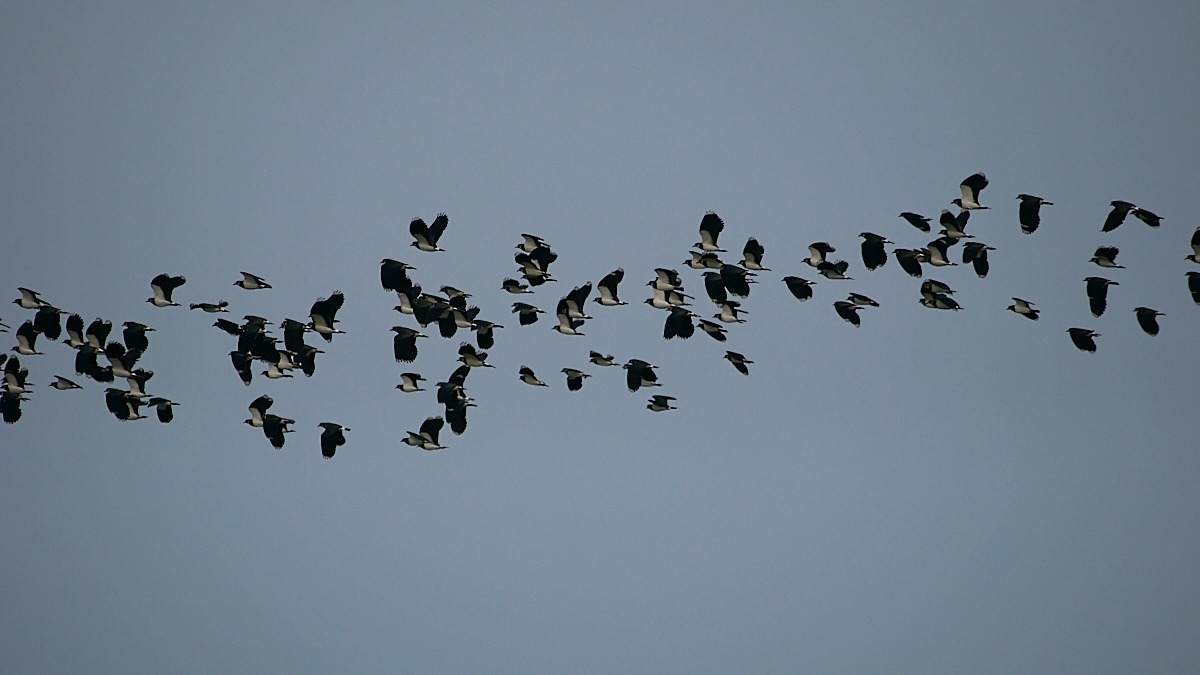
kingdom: Animalia
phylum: Chordata
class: Aves
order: Charadriiformes
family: Charadriidae
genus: Vanellus
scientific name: Vanellus vanellus
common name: Vibe
